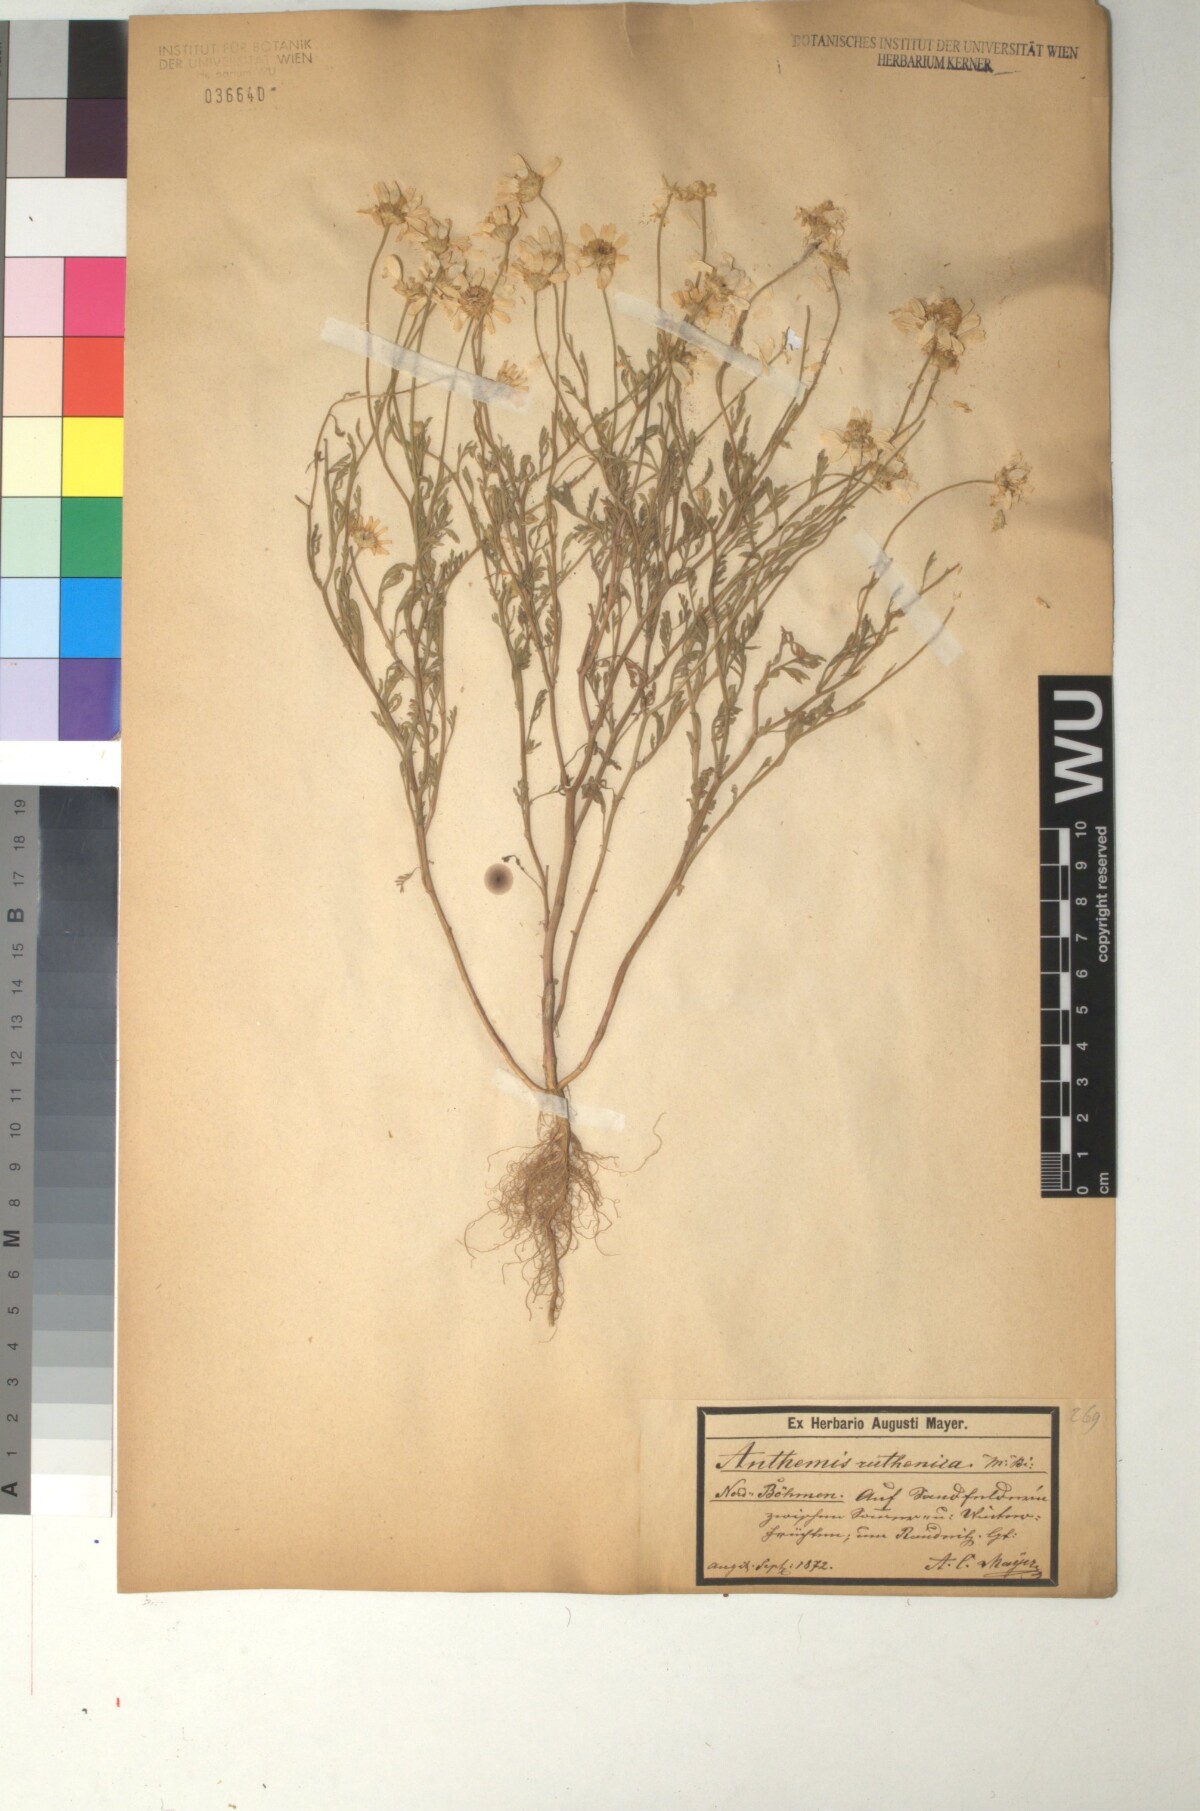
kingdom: Plantae
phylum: Tracheophyta
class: Magnoliopsida
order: Asterales
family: Asteraceae
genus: Anthemis
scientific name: Anthemis ruthenica
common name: Eastern chamomile
